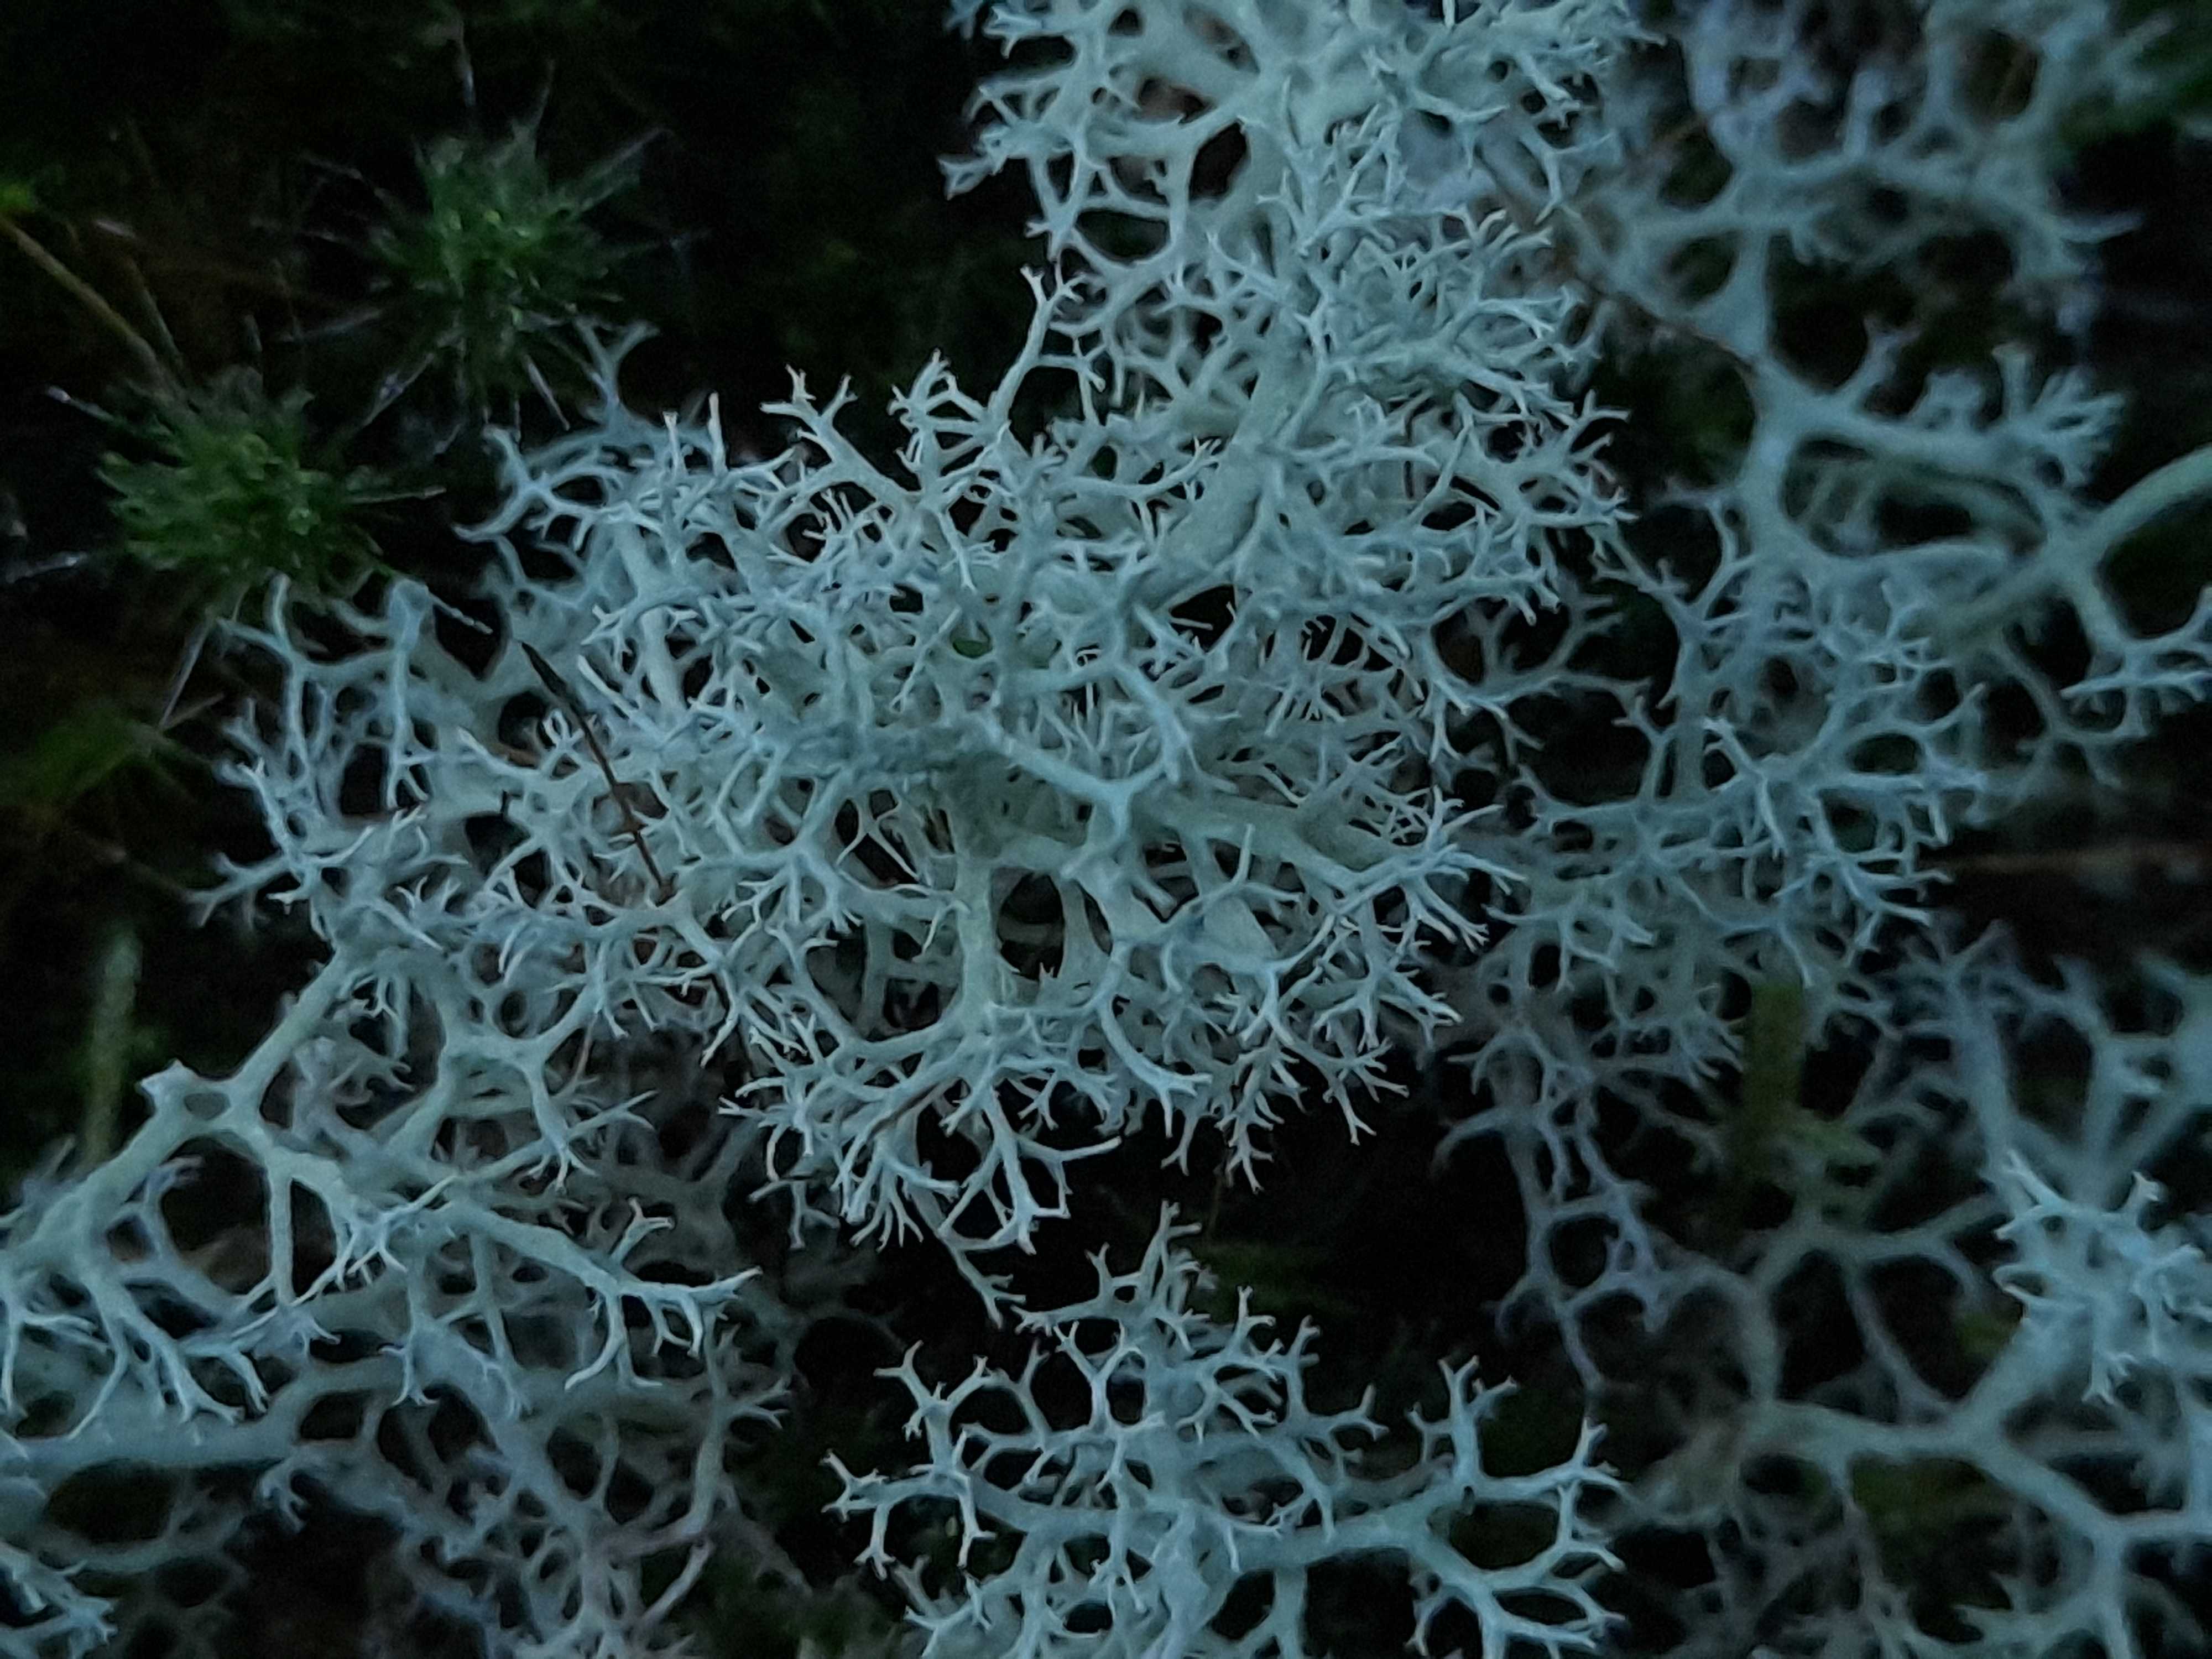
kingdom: Fungi
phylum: Ascomycota
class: Lecanoromycetes
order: Lecanorales
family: Cladoniaceae
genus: Cladonia
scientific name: Cladonia portentosa
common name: hede-rensdyrlav
